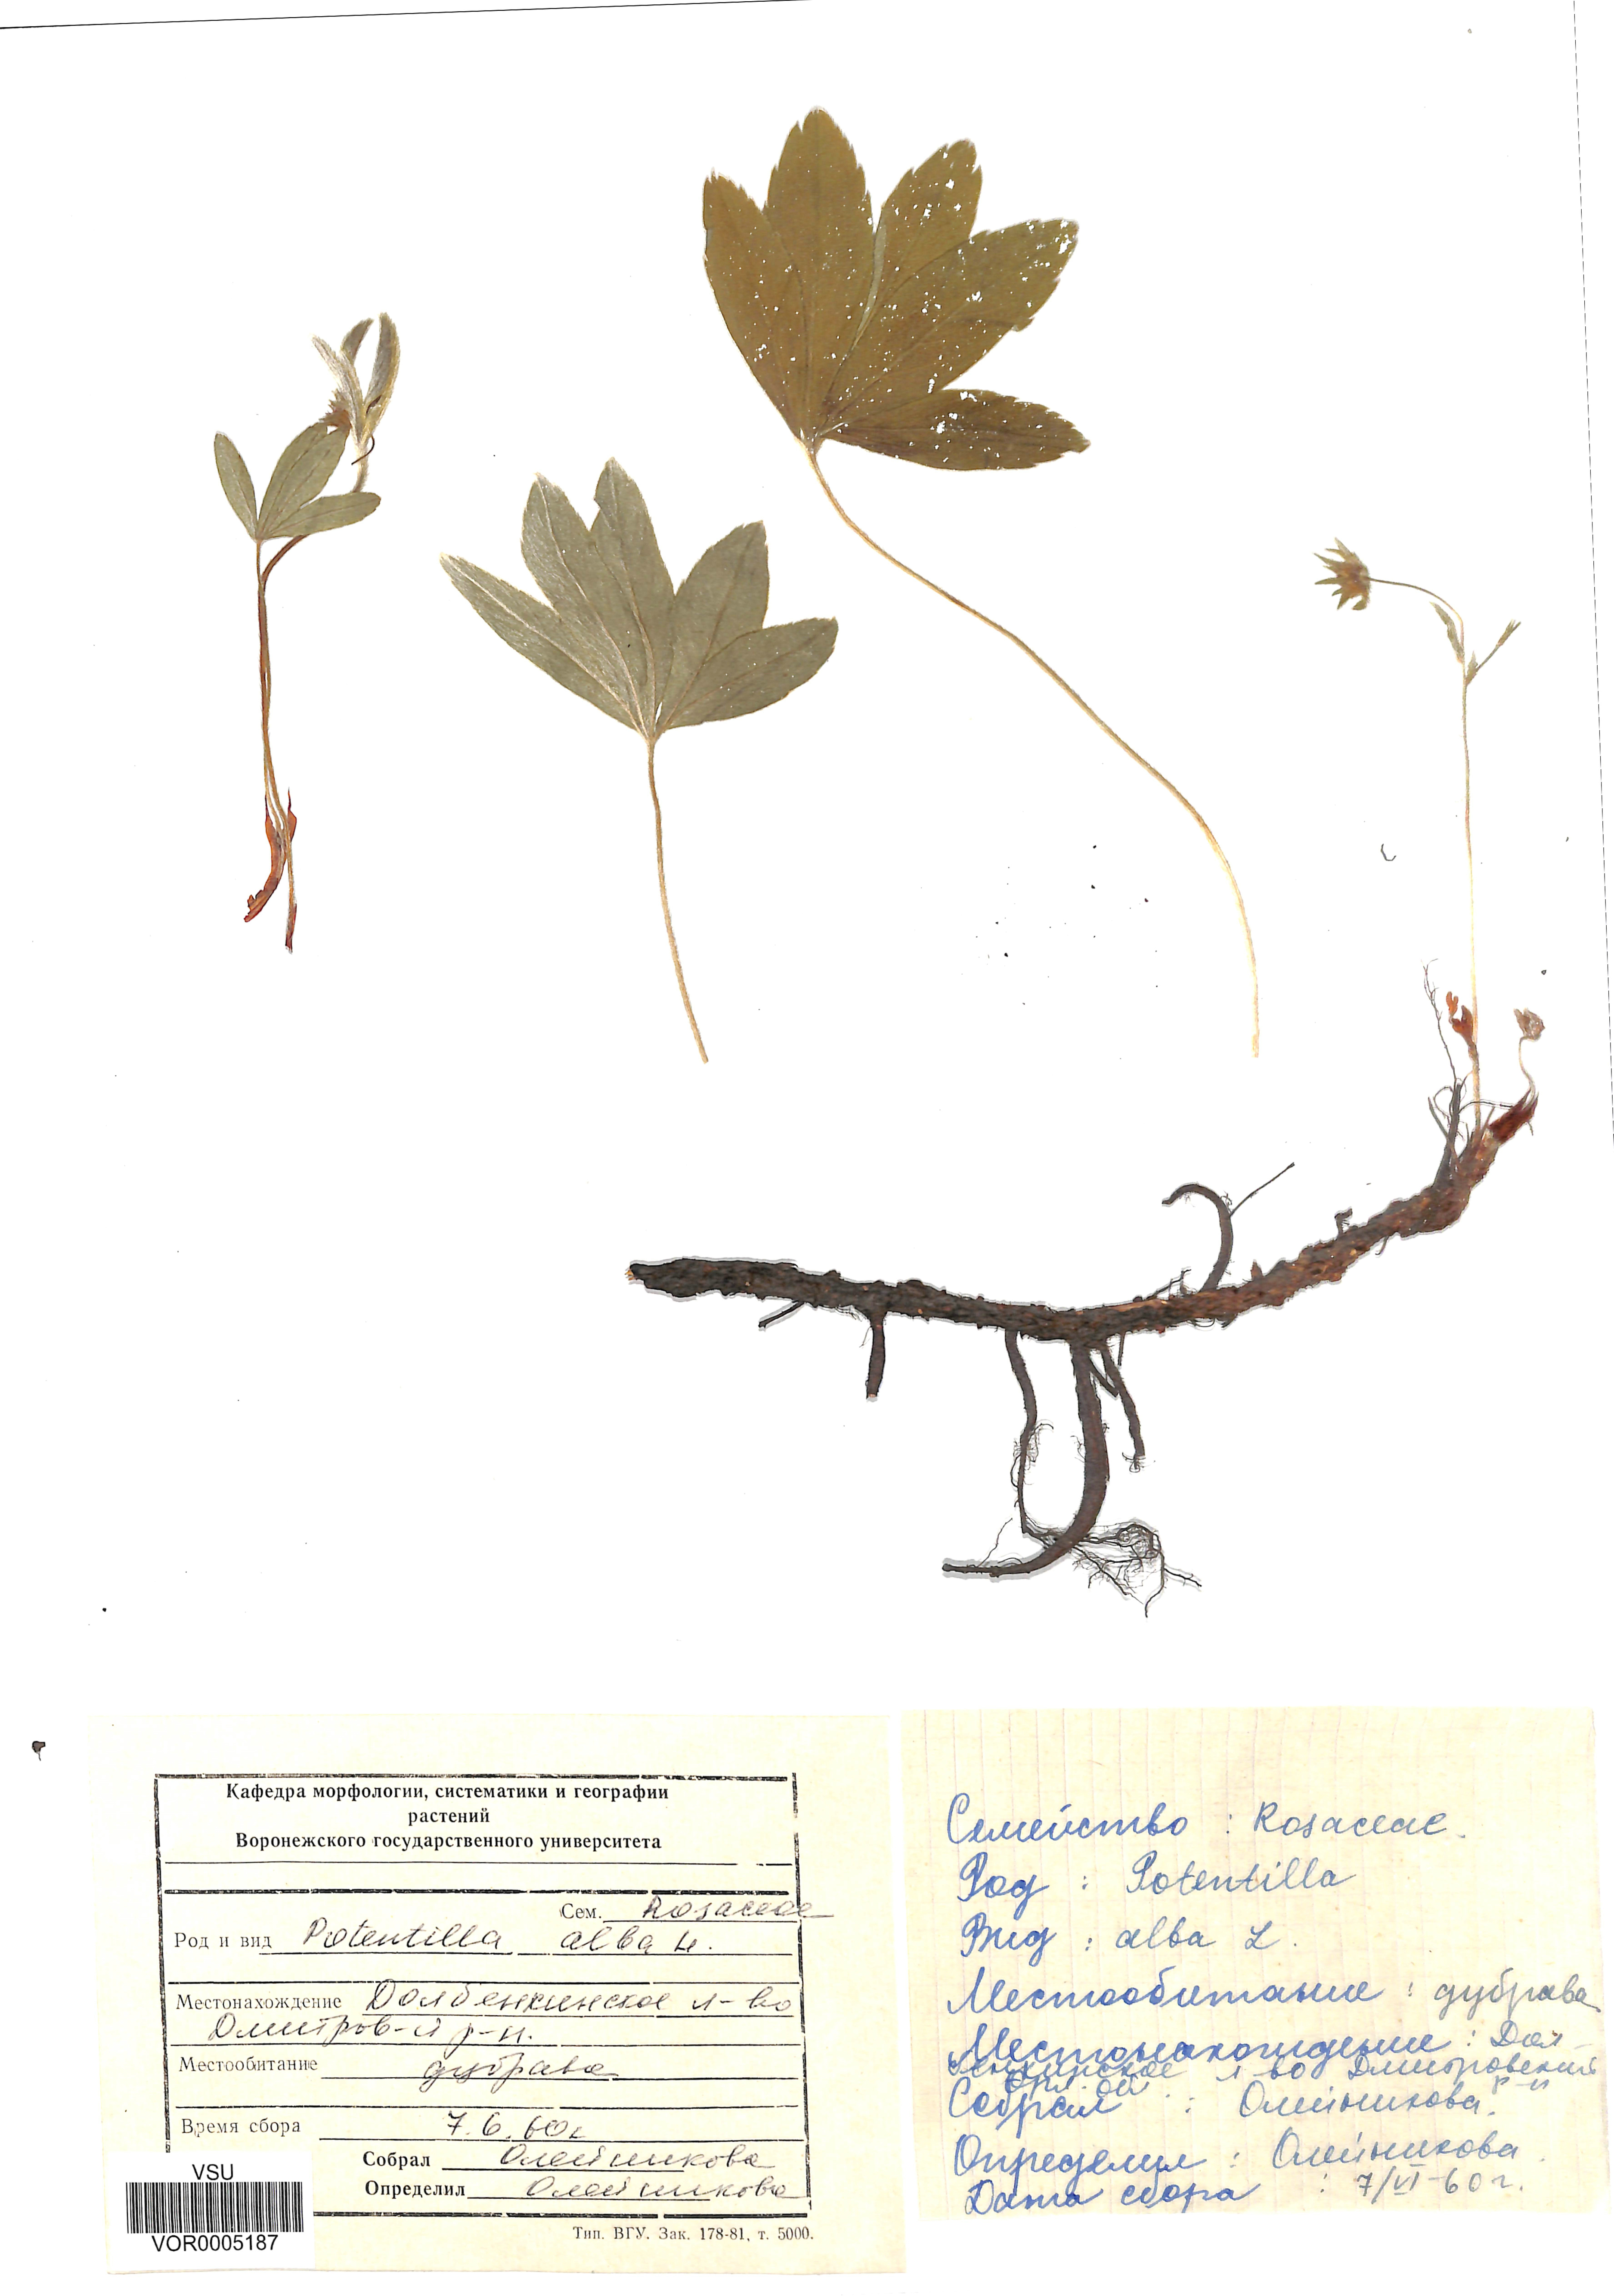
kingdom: Plantae
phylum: Tracheophyta
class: Magnoliopsida
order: Rosales
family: Rosaceae
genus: Potentilla
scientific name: Potentilla alba
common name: White cinquefoil
